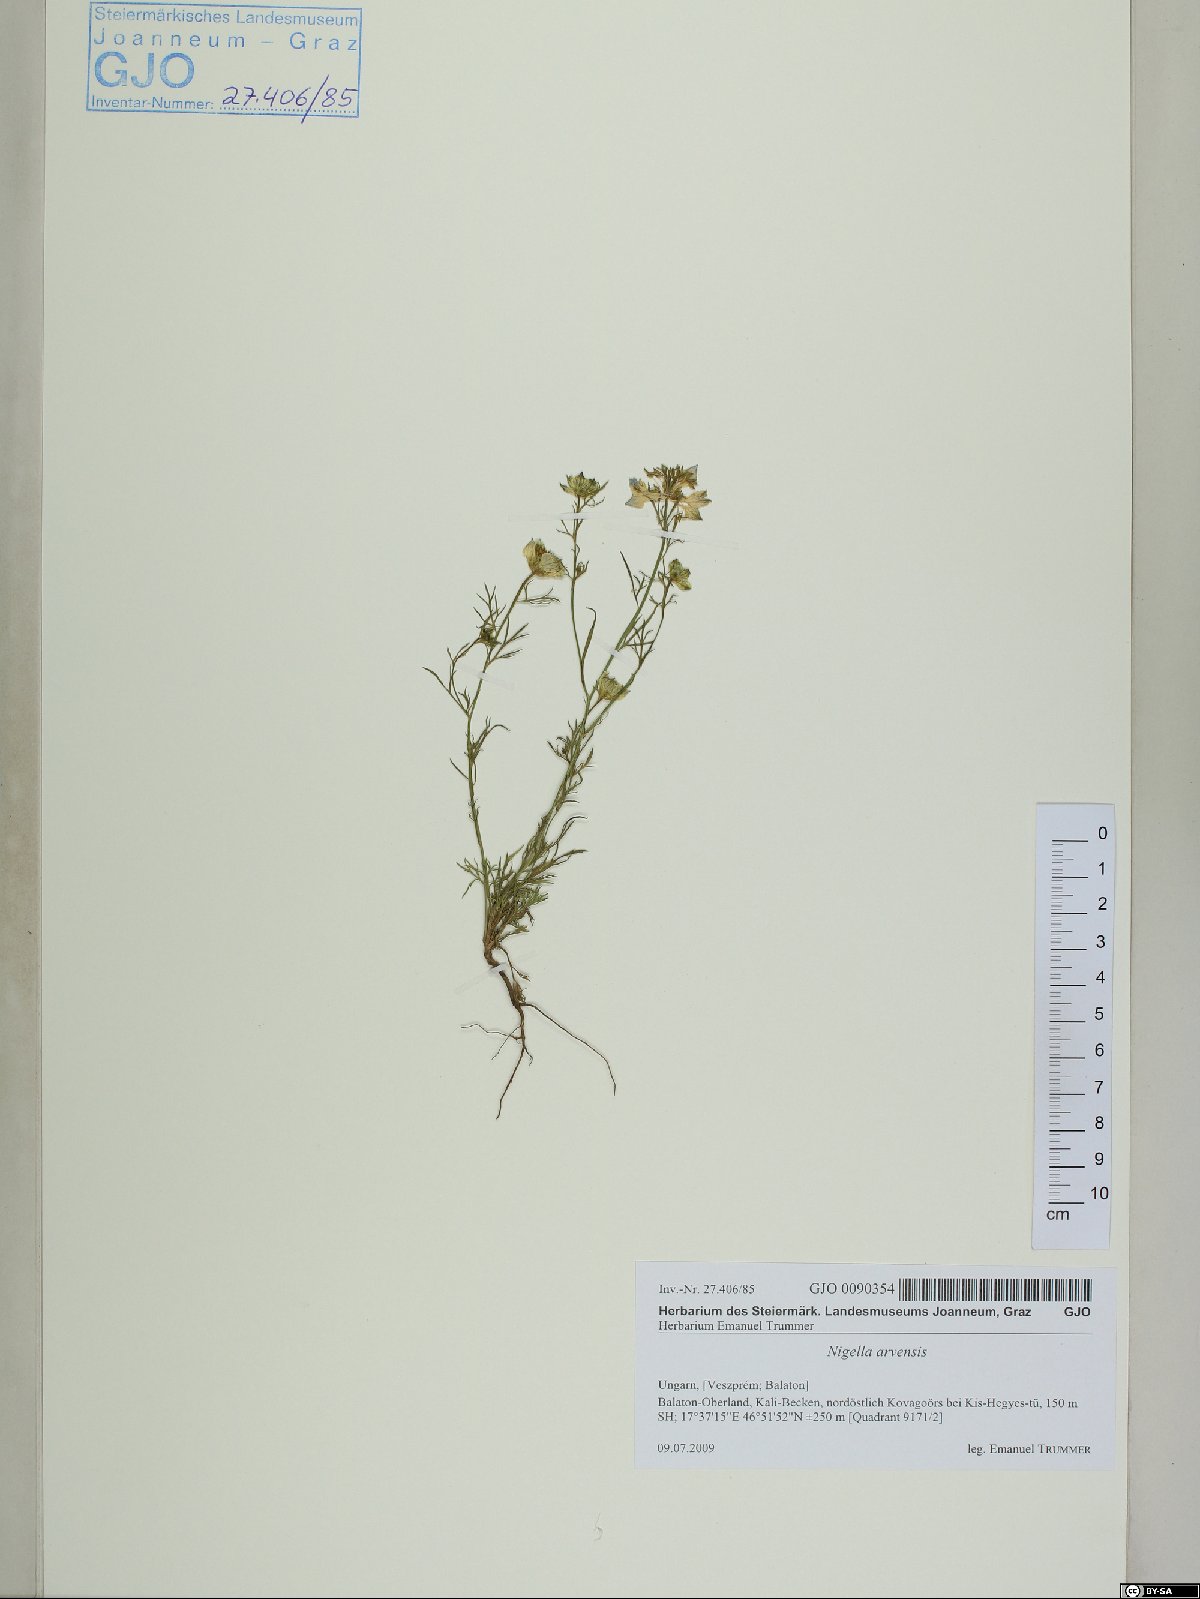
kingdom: Plantae
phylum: Tracheophyta
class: Magnoliopsida
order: Ranunculales
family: Ranunculaceae
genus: Nigella
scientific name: Nigella arvensis
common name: Wild fennel-flower
